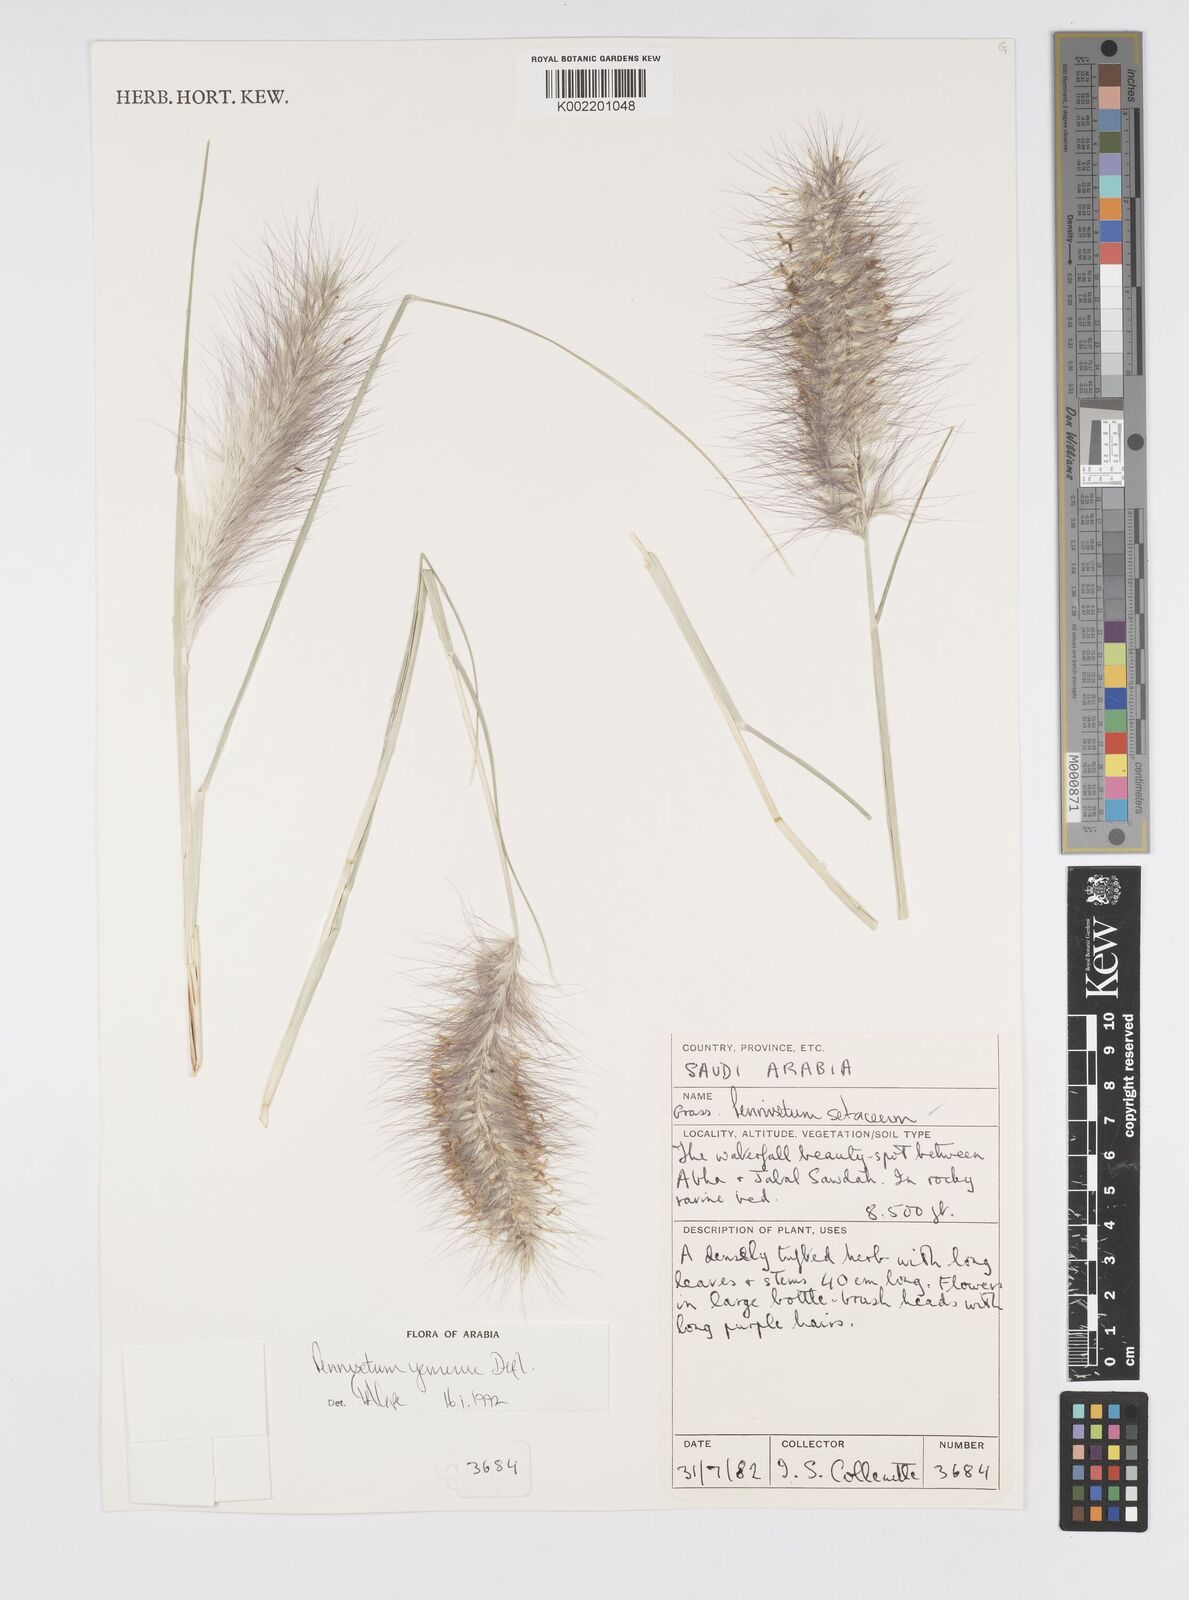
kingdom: Plantae
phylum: Tracheophyta
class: Liliopsida
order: Poales
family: Poaceae
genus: Cenchrus
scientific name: Cenchrus yemensis
